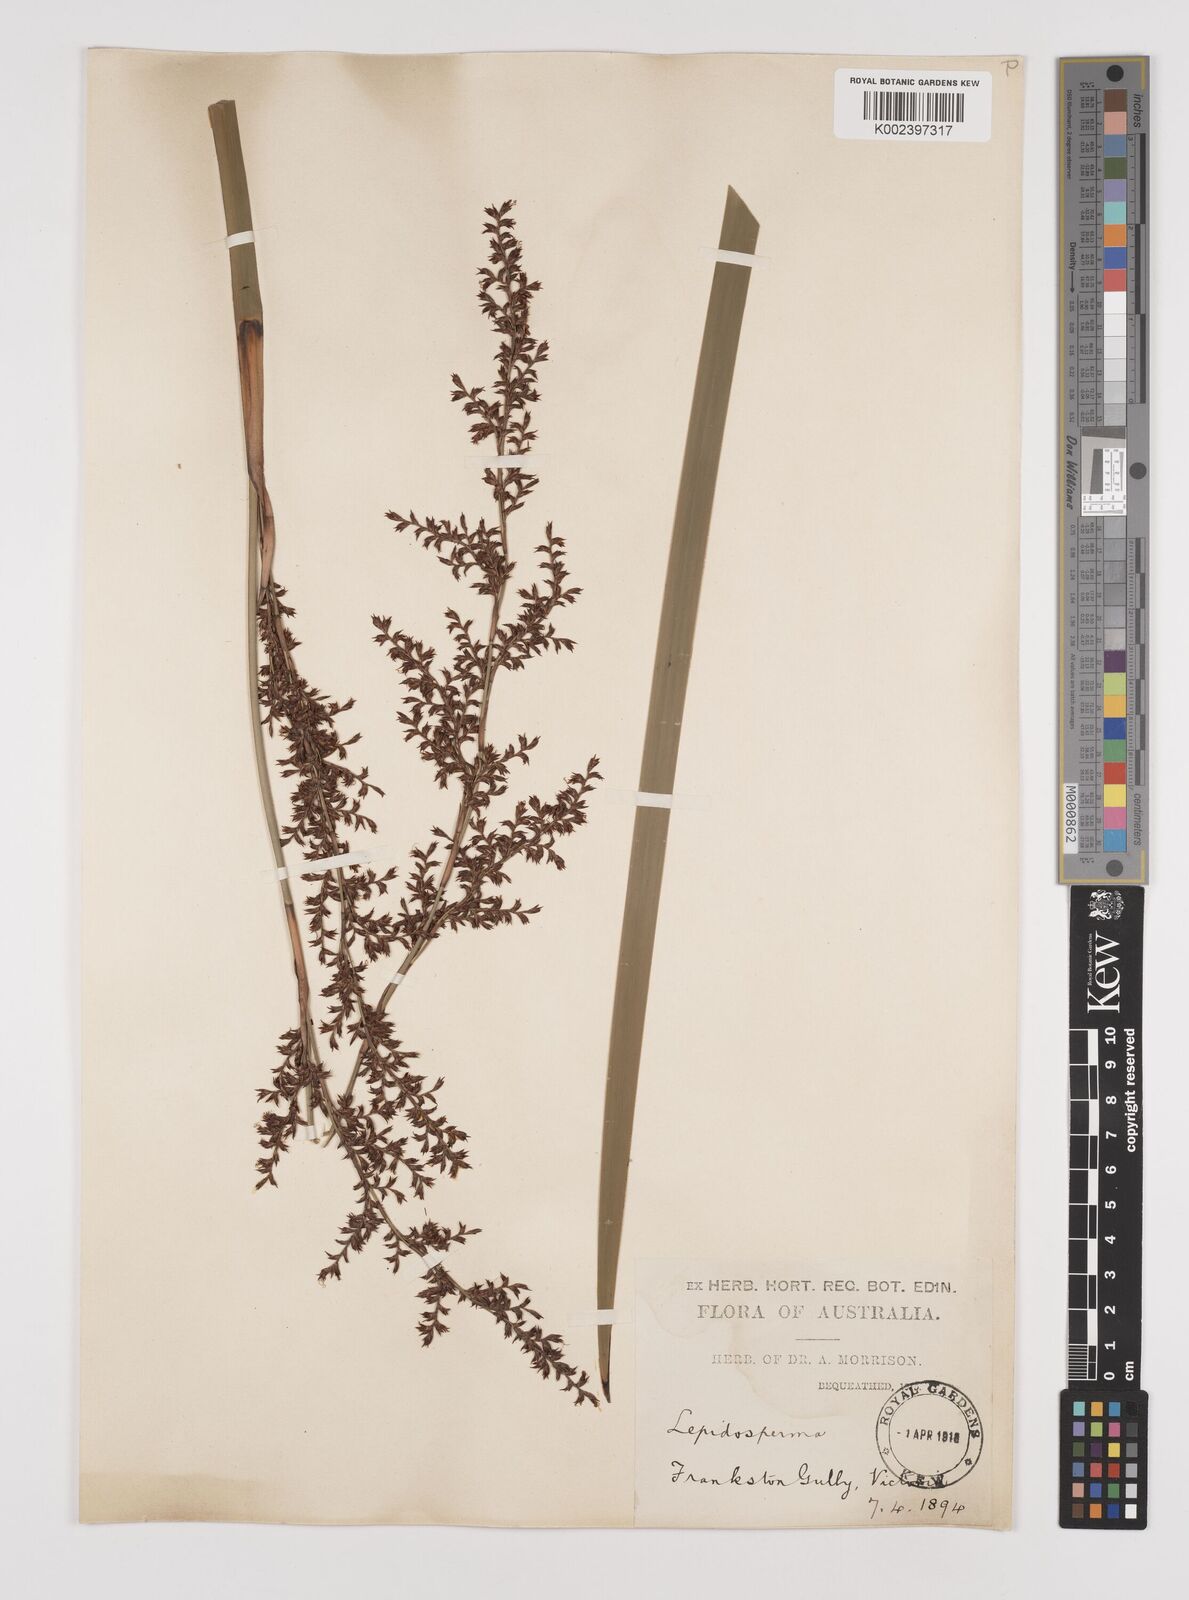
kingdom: Plantae
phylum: Tracheophyta
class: Liliopsida
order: Poales
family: Cyperaceae
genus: Lepidosperma
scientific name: Lepidosperma
